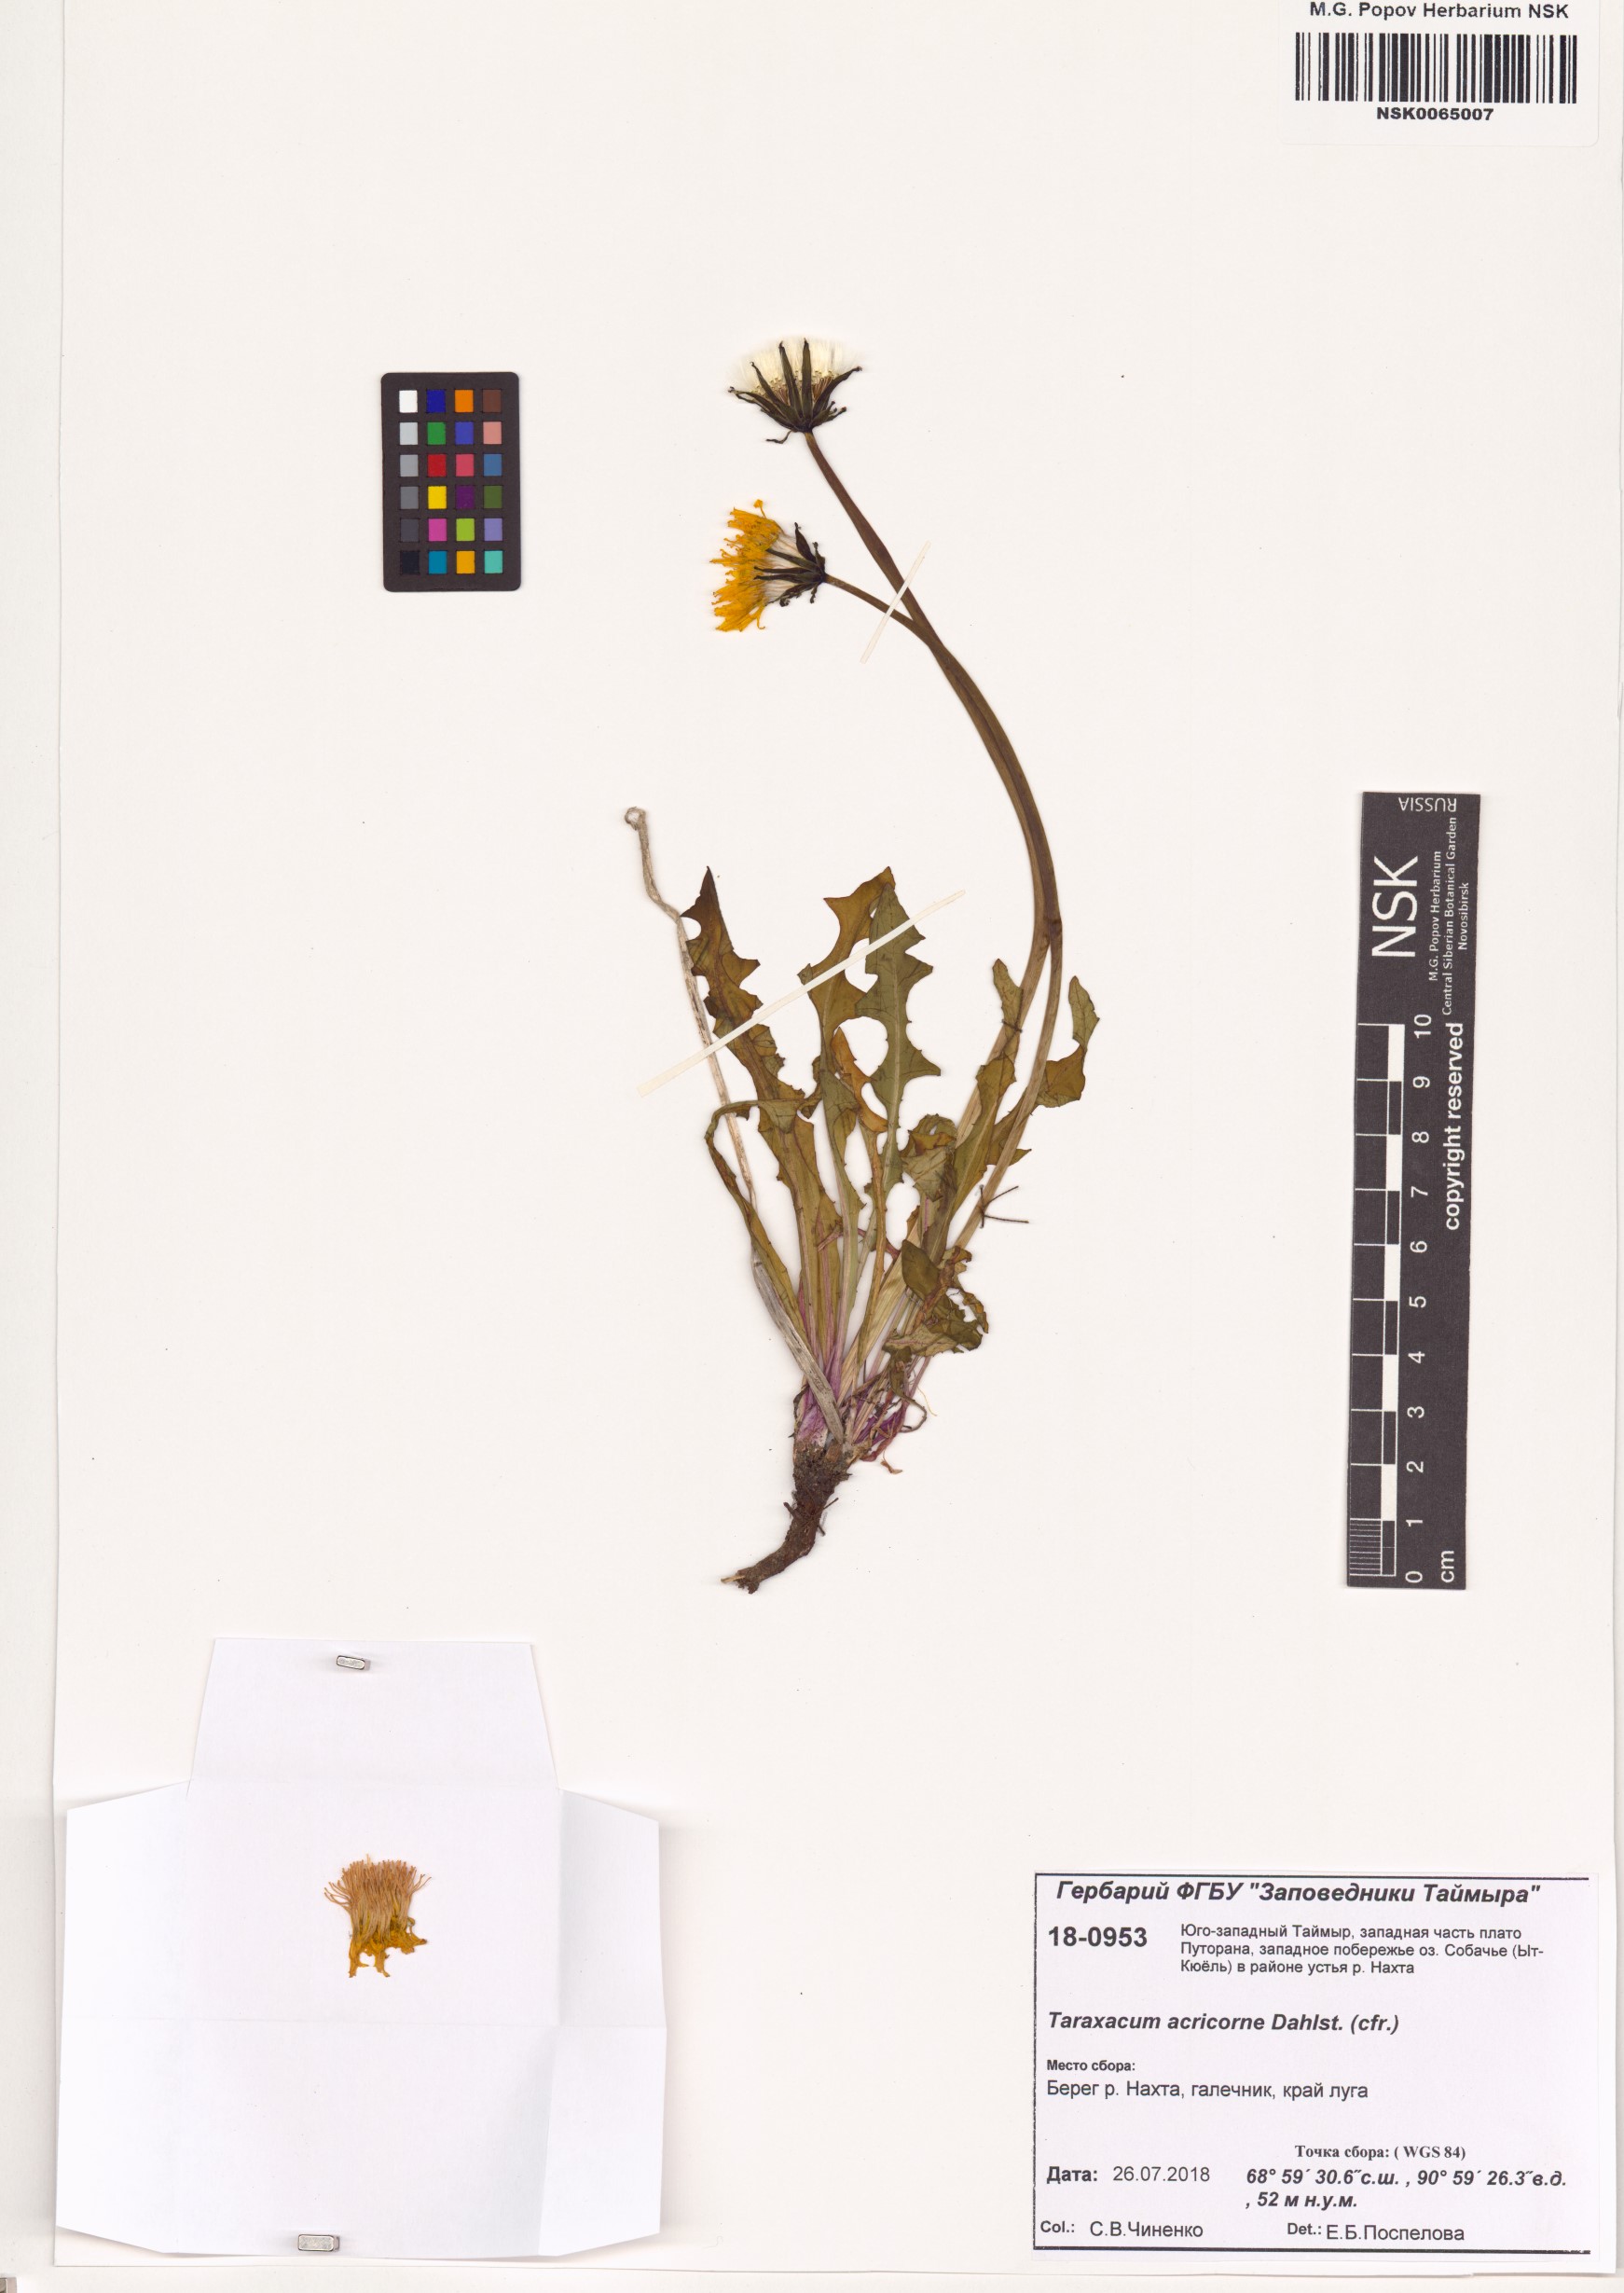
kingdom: Plantae
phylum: Tracheophyta
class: Magnoliopsida
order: Asterales
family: Asteraceae
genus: Taraxacum
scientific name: Taraxacum acricorne
